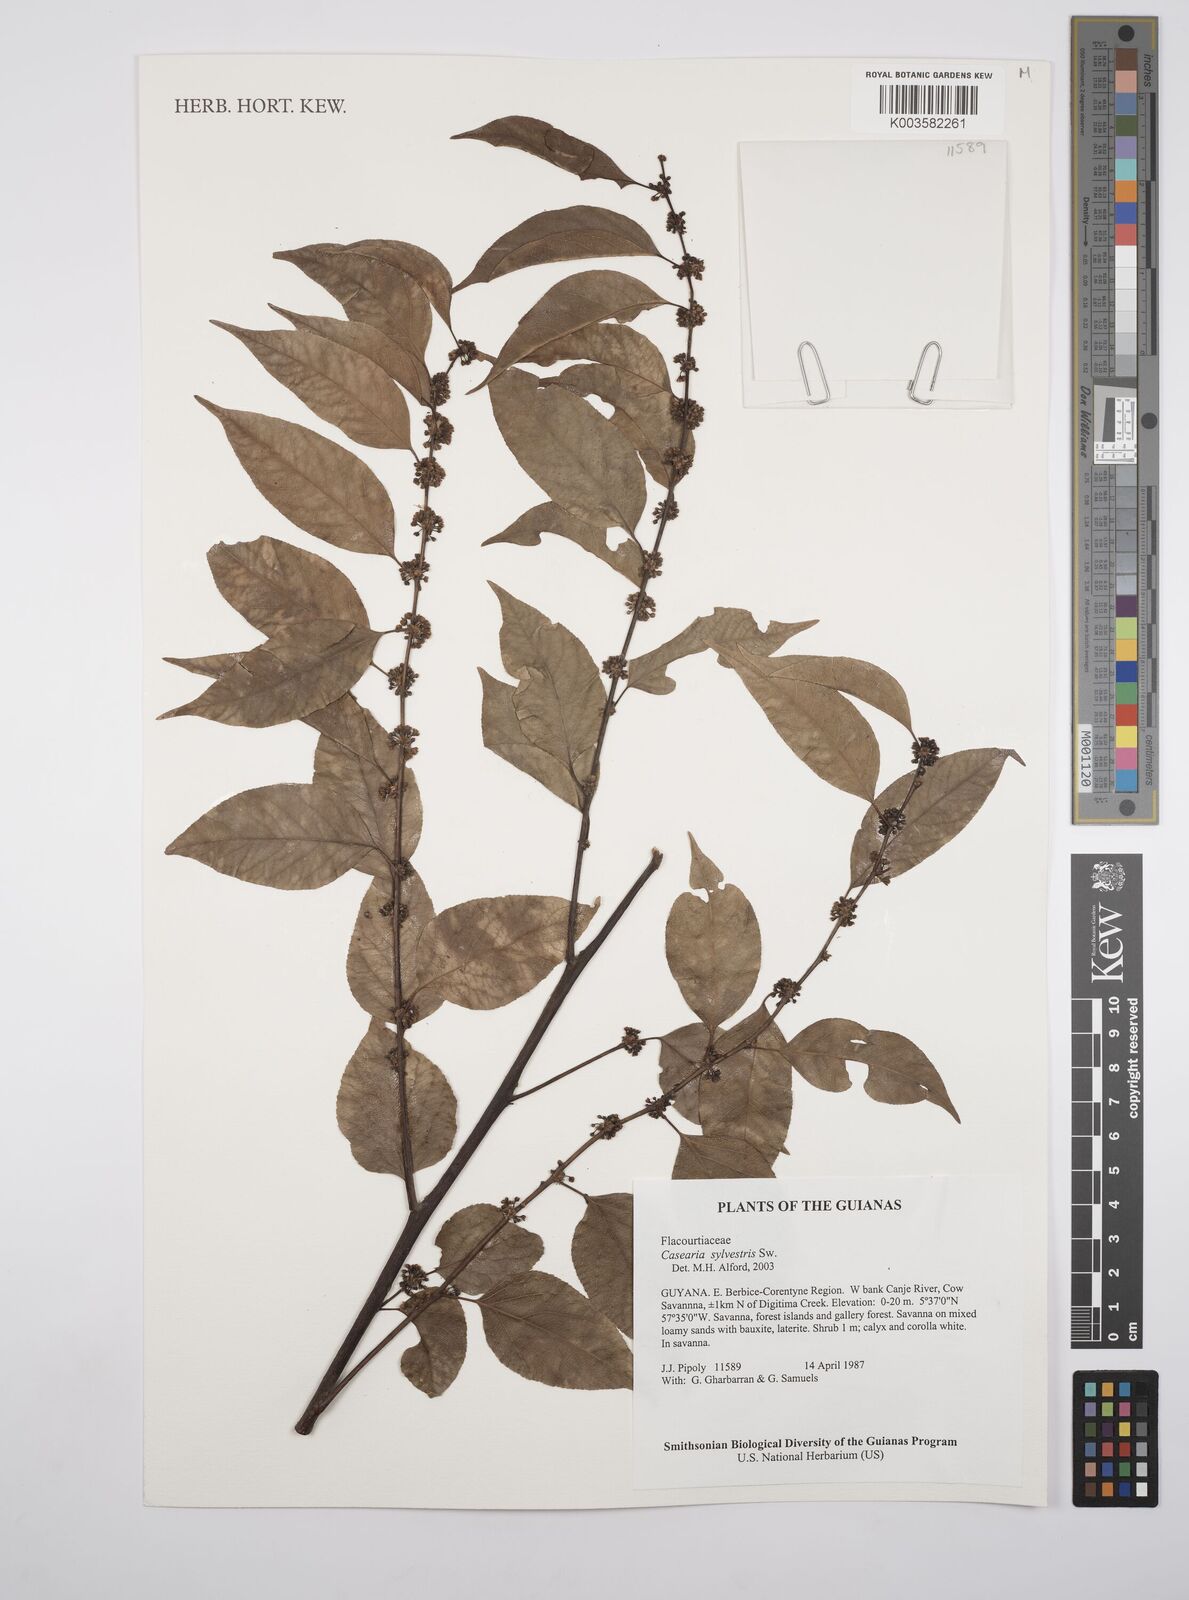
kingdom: Plantae
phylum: Tracheophyta
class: Magnoliopsida
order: Malpighiales
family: Salicaceae
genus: Casearia
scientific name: Casearia sylvestris
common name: Wild sage
